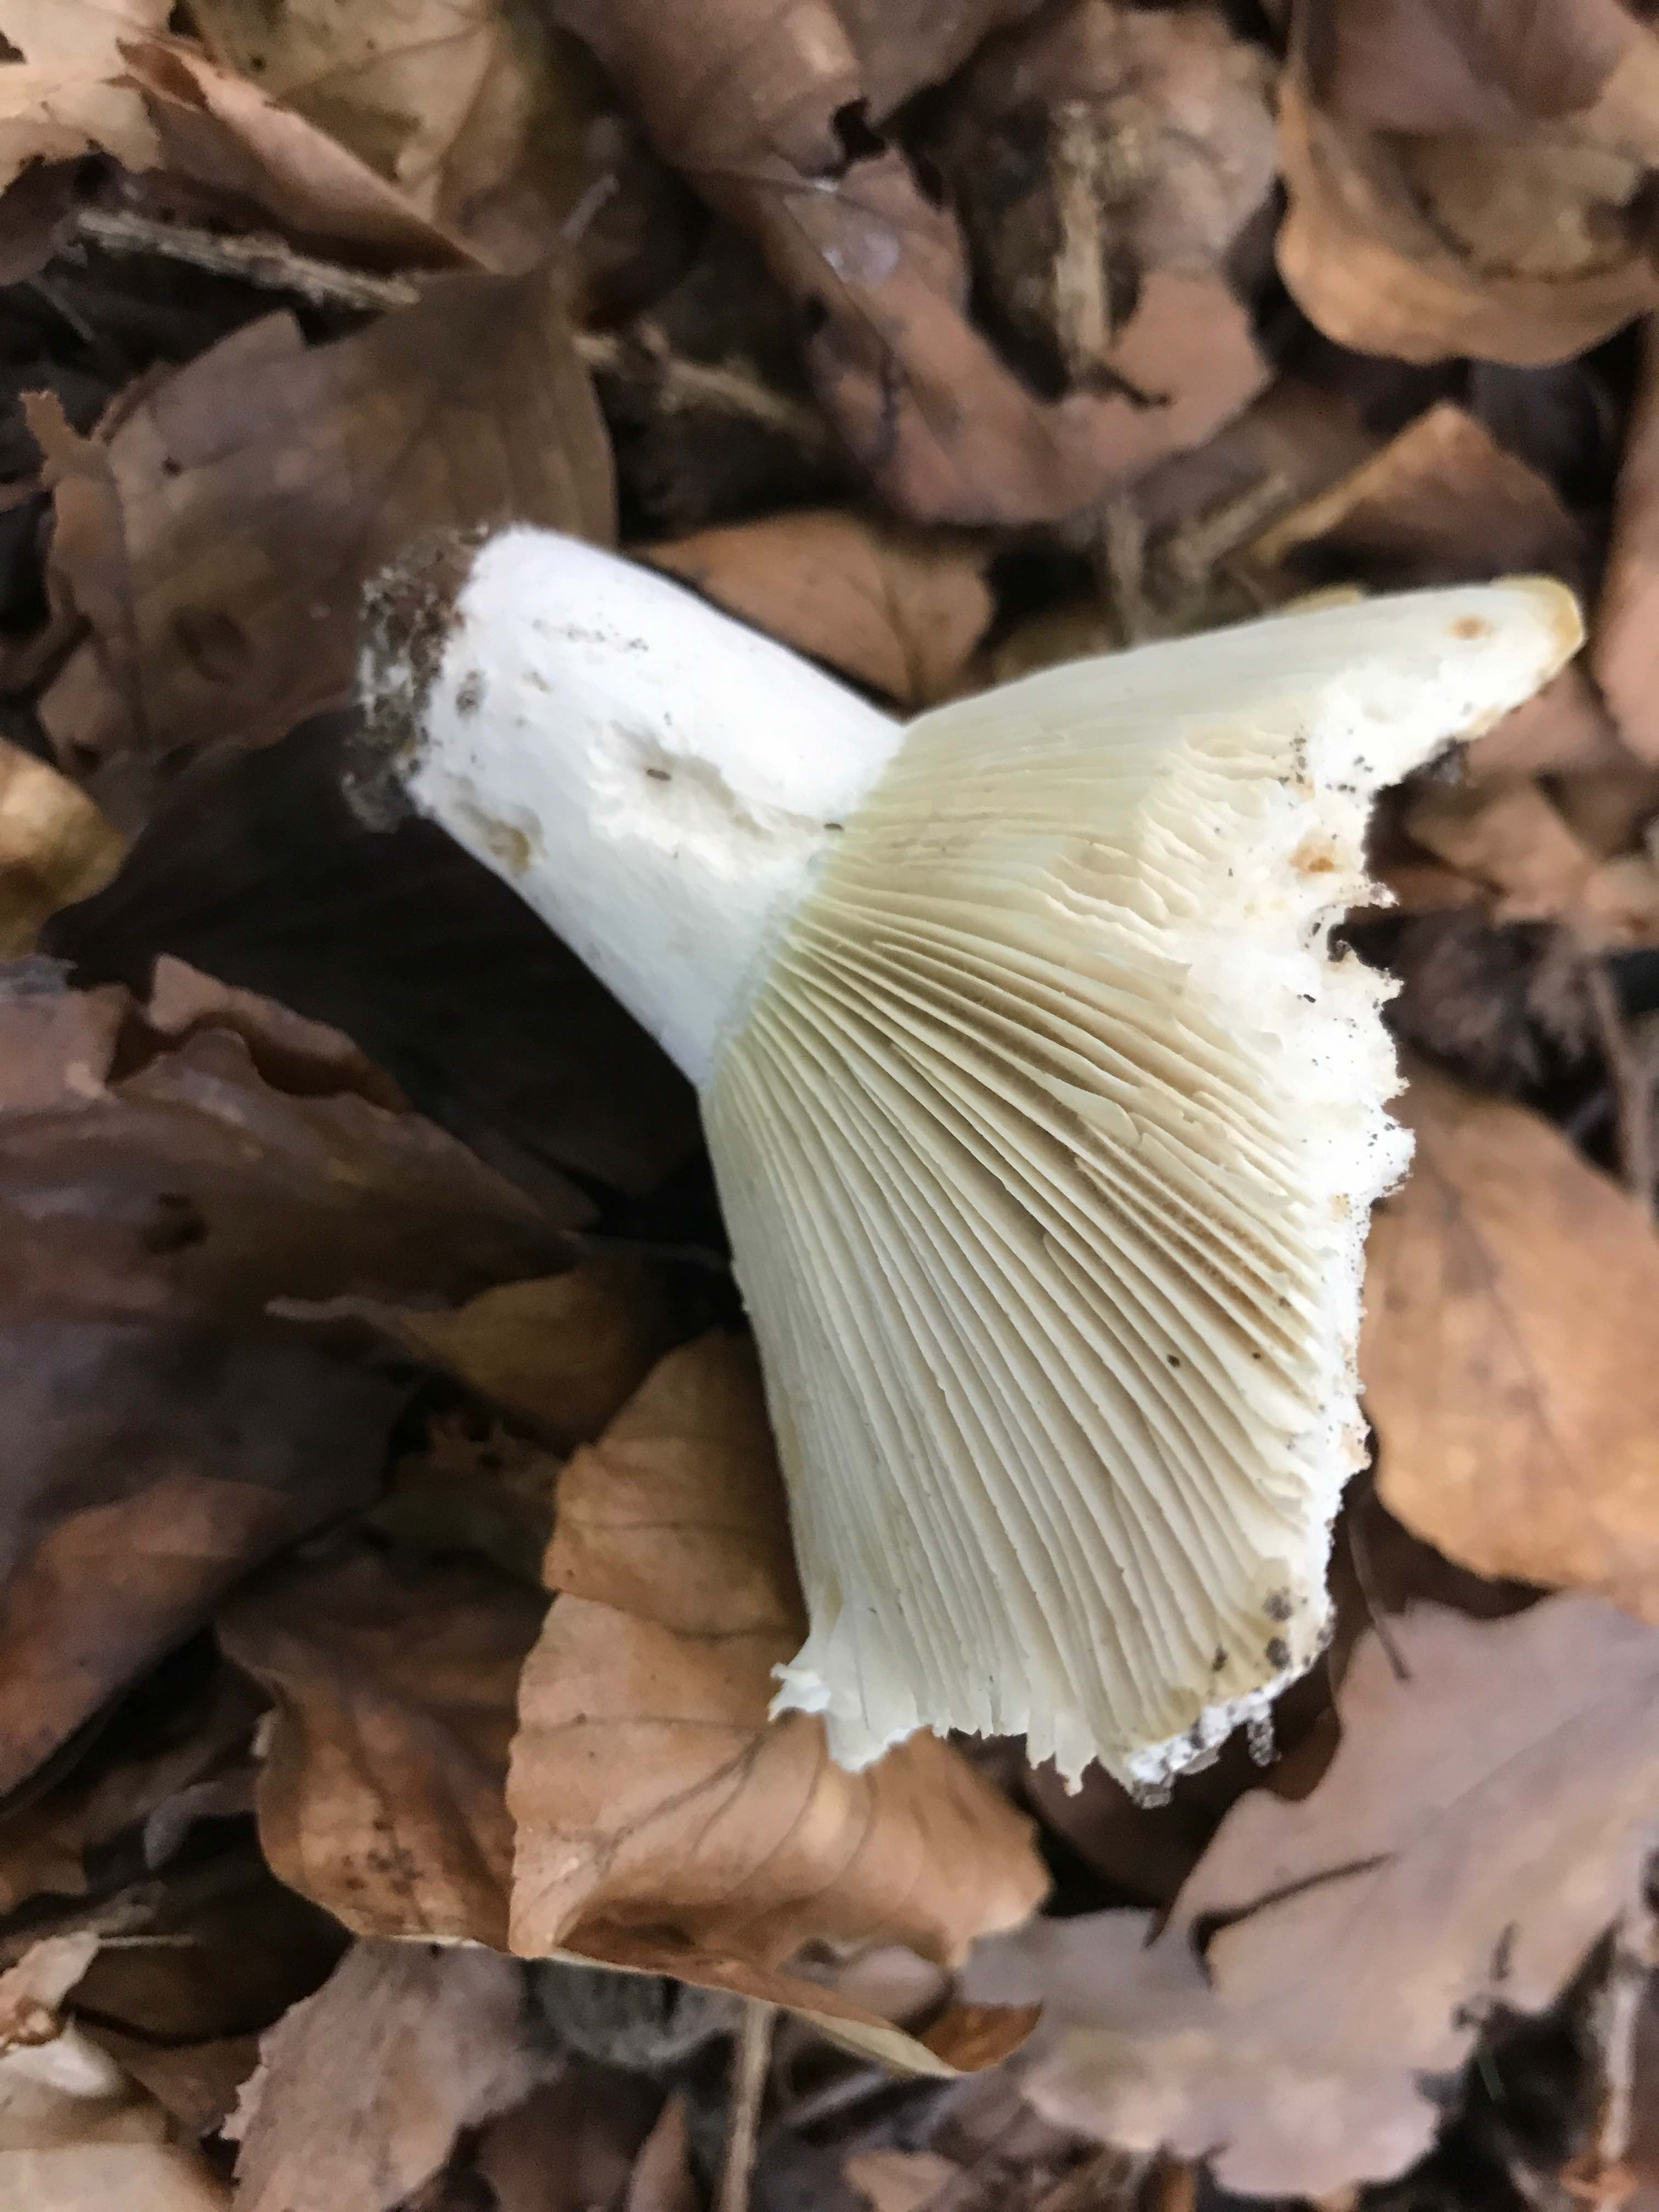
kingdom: Fungi
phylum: Basidiomycota
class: Agaricomycetes
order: Russulales
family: Russulaceae
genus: Russula
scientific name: Russula chloroides
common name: grønhalset tragt-skørhat
